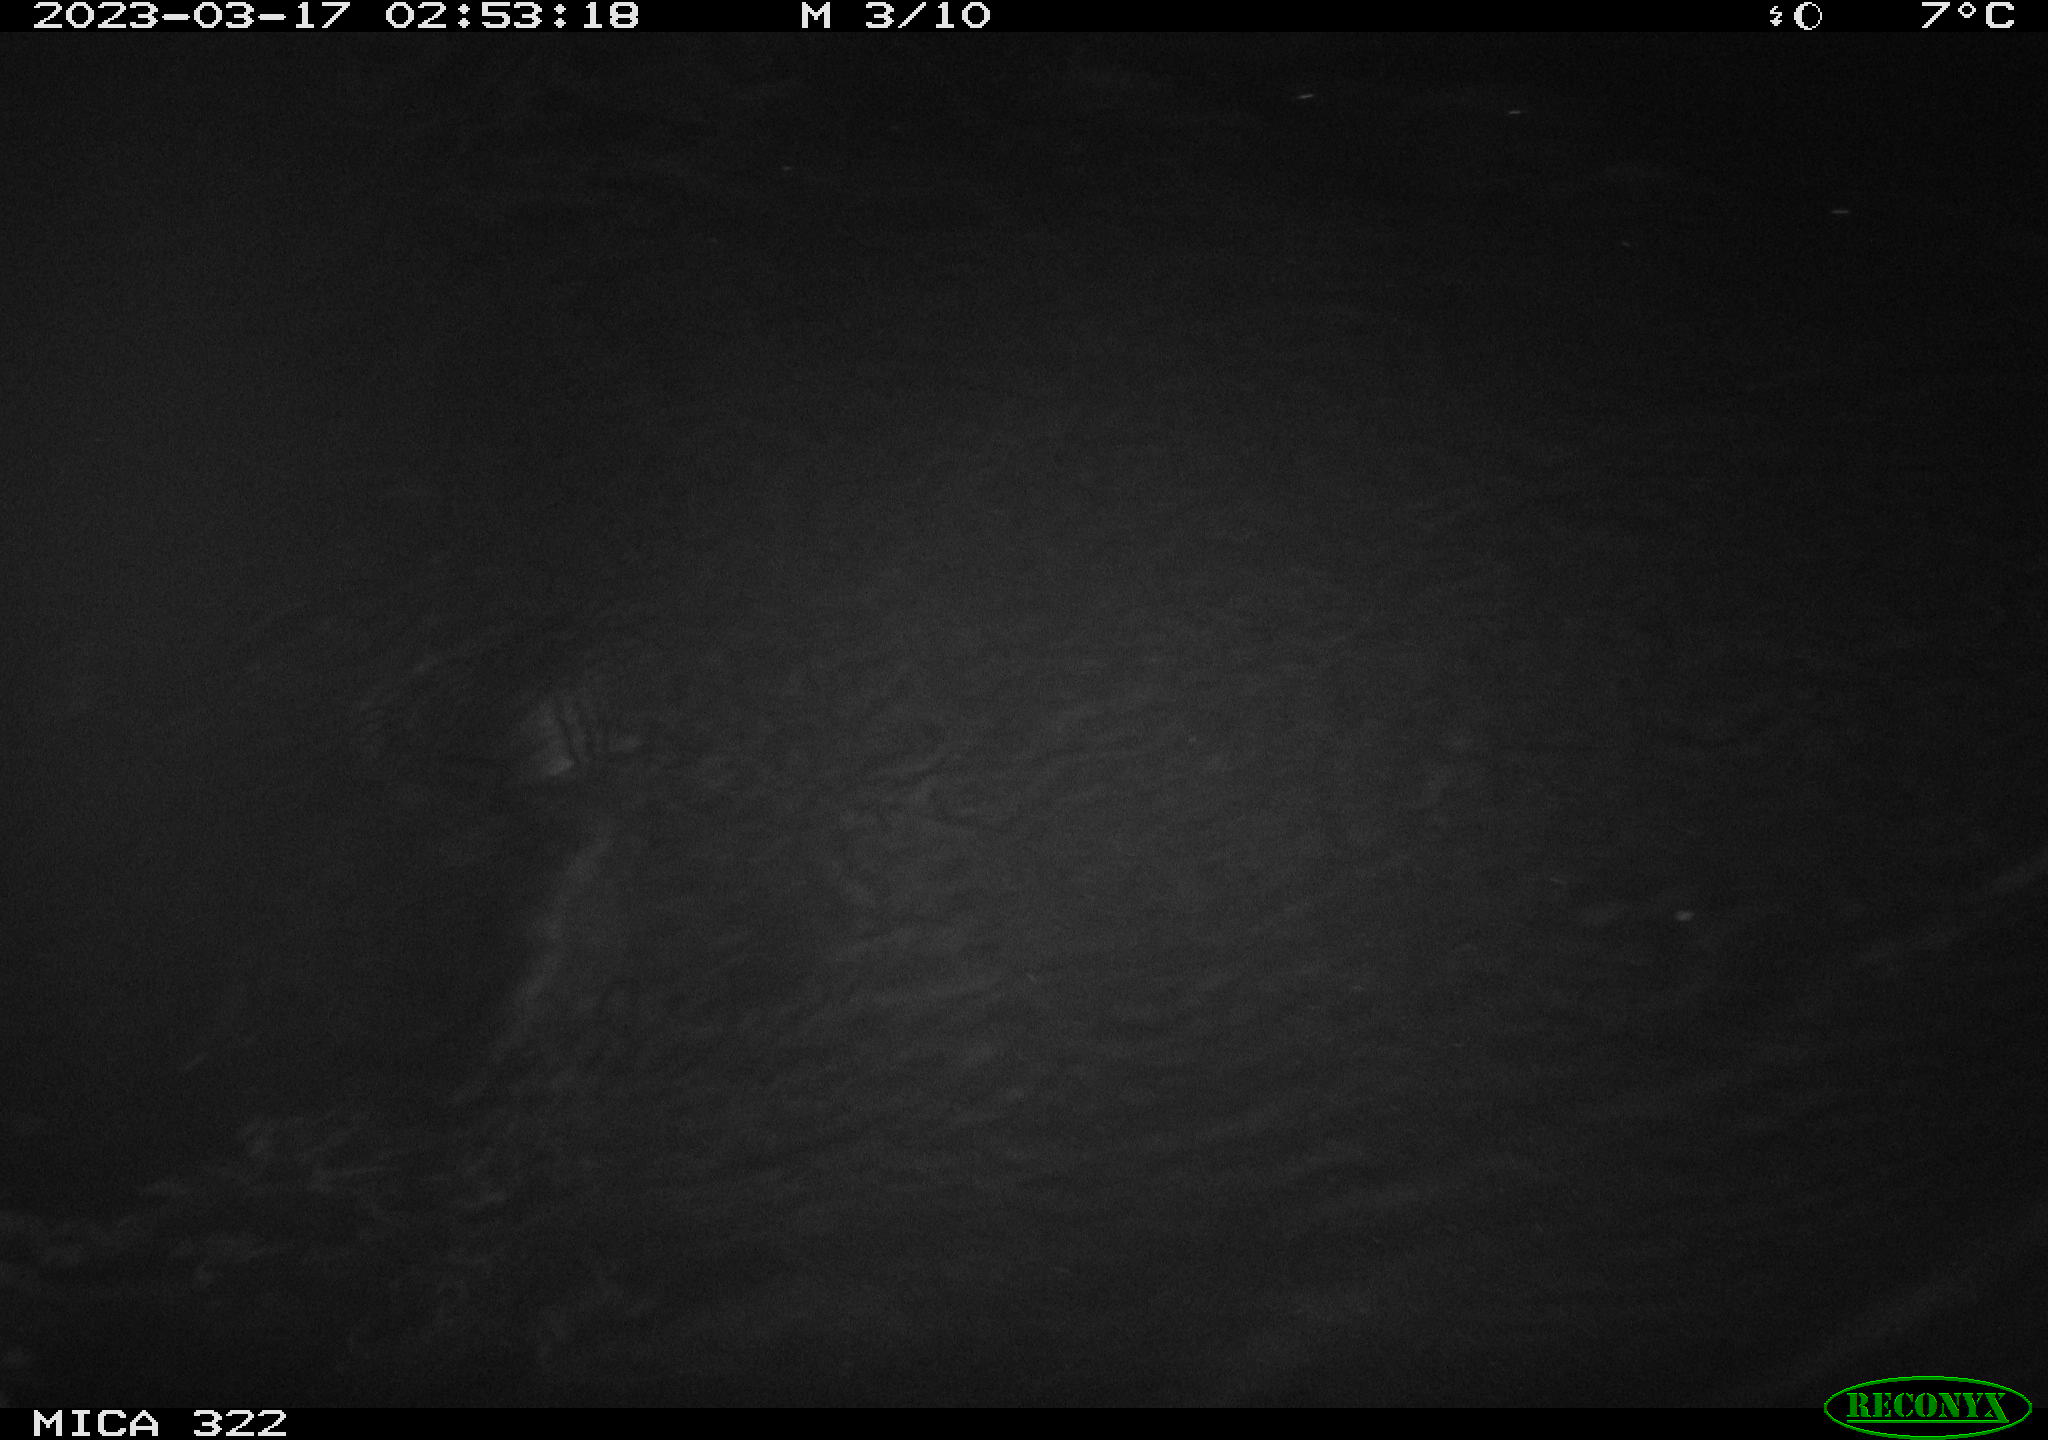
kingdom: Animalia
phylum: Chordata
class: Aves
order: Anseriformes
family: Anatidae
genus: Anas
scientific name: Anas
